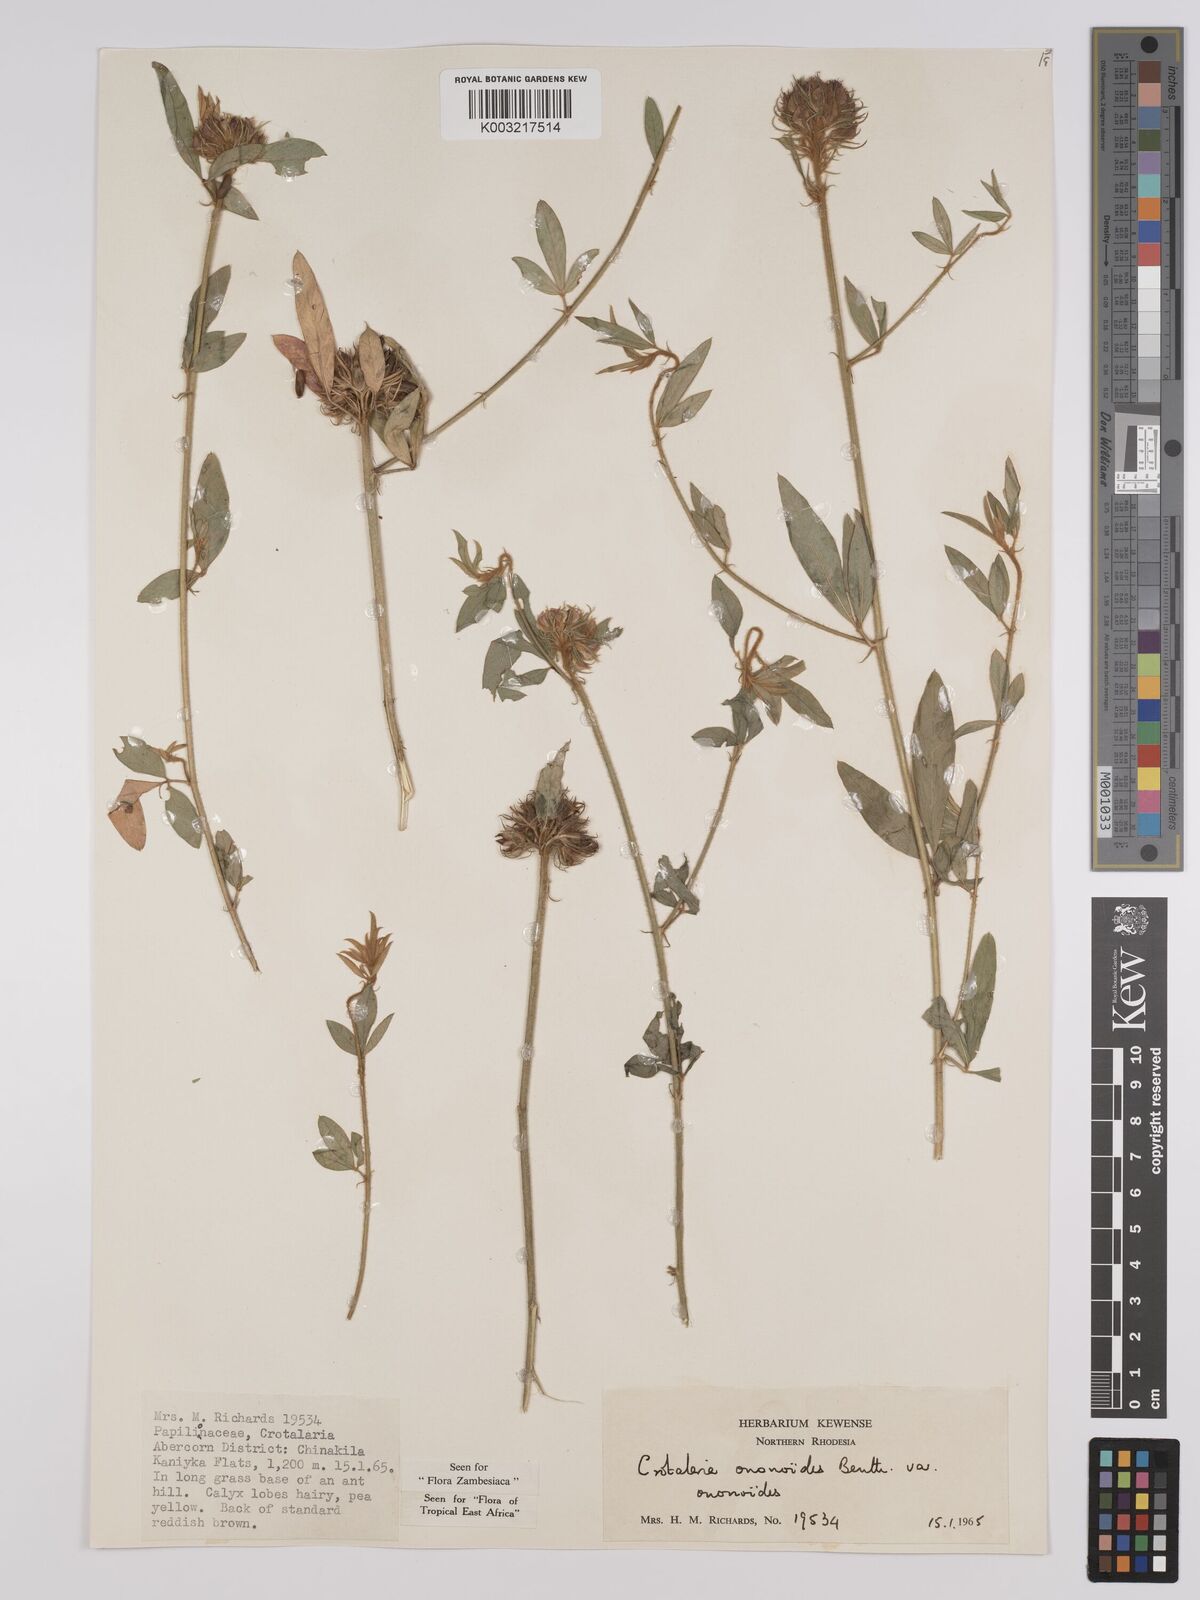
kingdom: Plantae
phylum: Tracheophyta
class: Magnoliopsida
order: Fabales
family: Fabaceae
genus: Crotalaria
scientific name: Crotalaria ononoides
